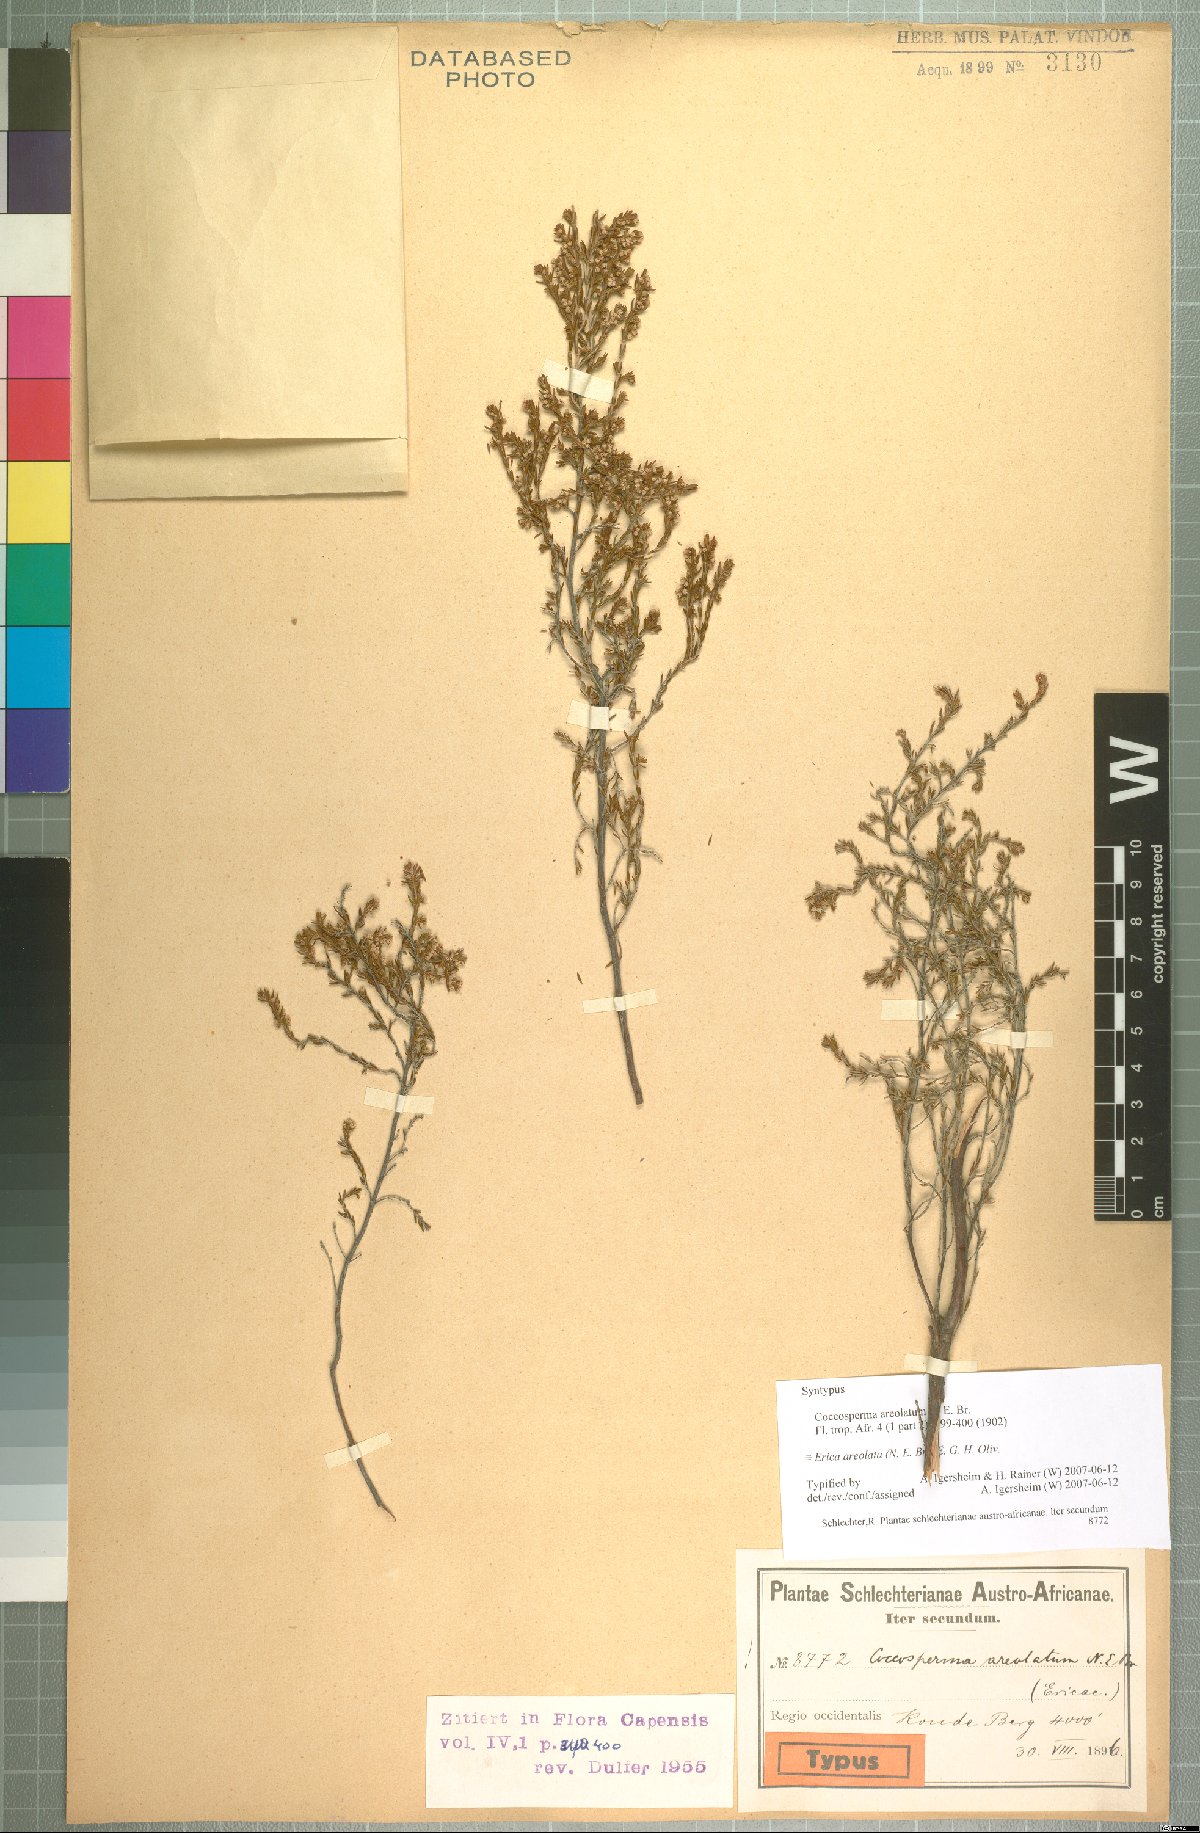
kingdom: Plantae
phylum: Tracheophyta
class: Magnoliopsida
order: Ericales
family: Ericaceae
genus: Erica
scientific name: Erica areolata
